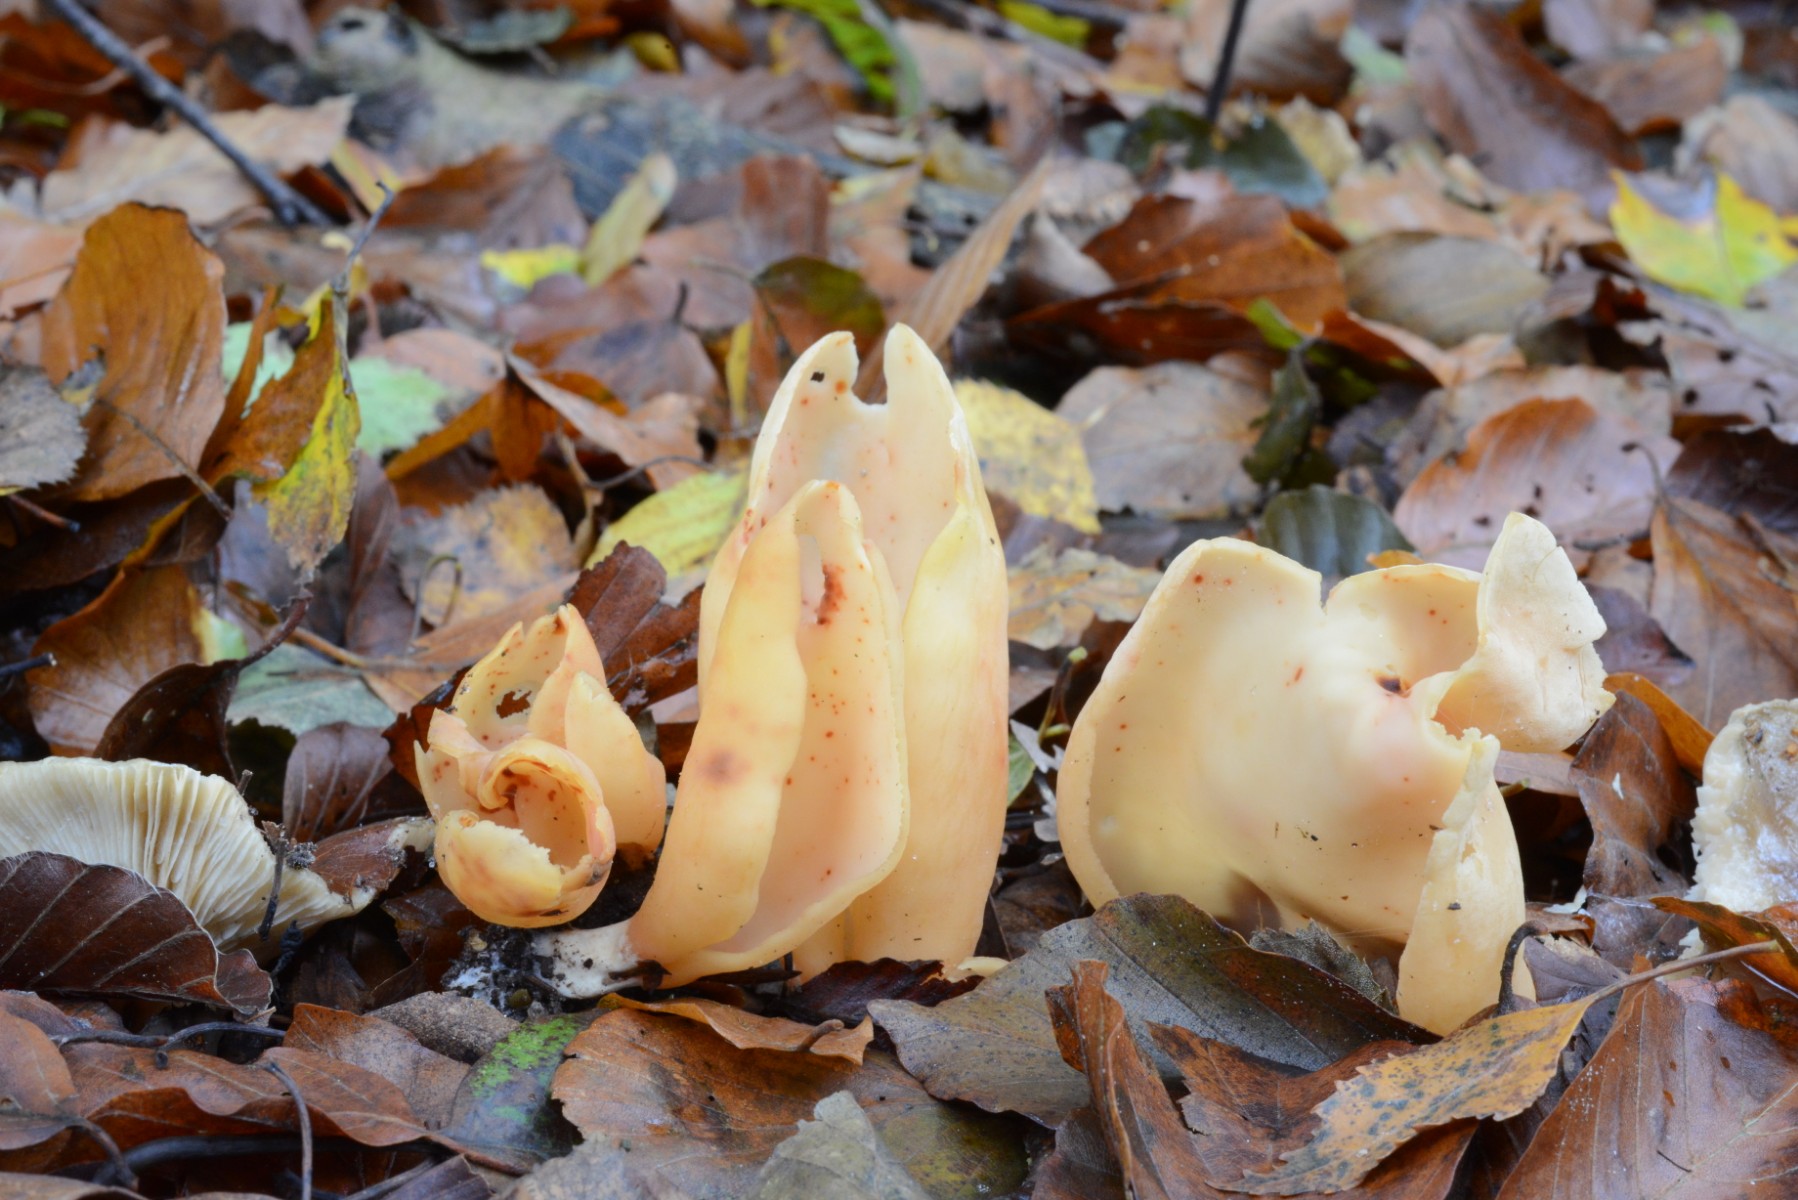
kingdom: Fungi
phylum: Ascomycota
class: Pezizomycetes
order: Pezizales
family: Otideaceae
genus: Otidea
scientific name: Otidea onotica
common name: æsel-ørebæger
